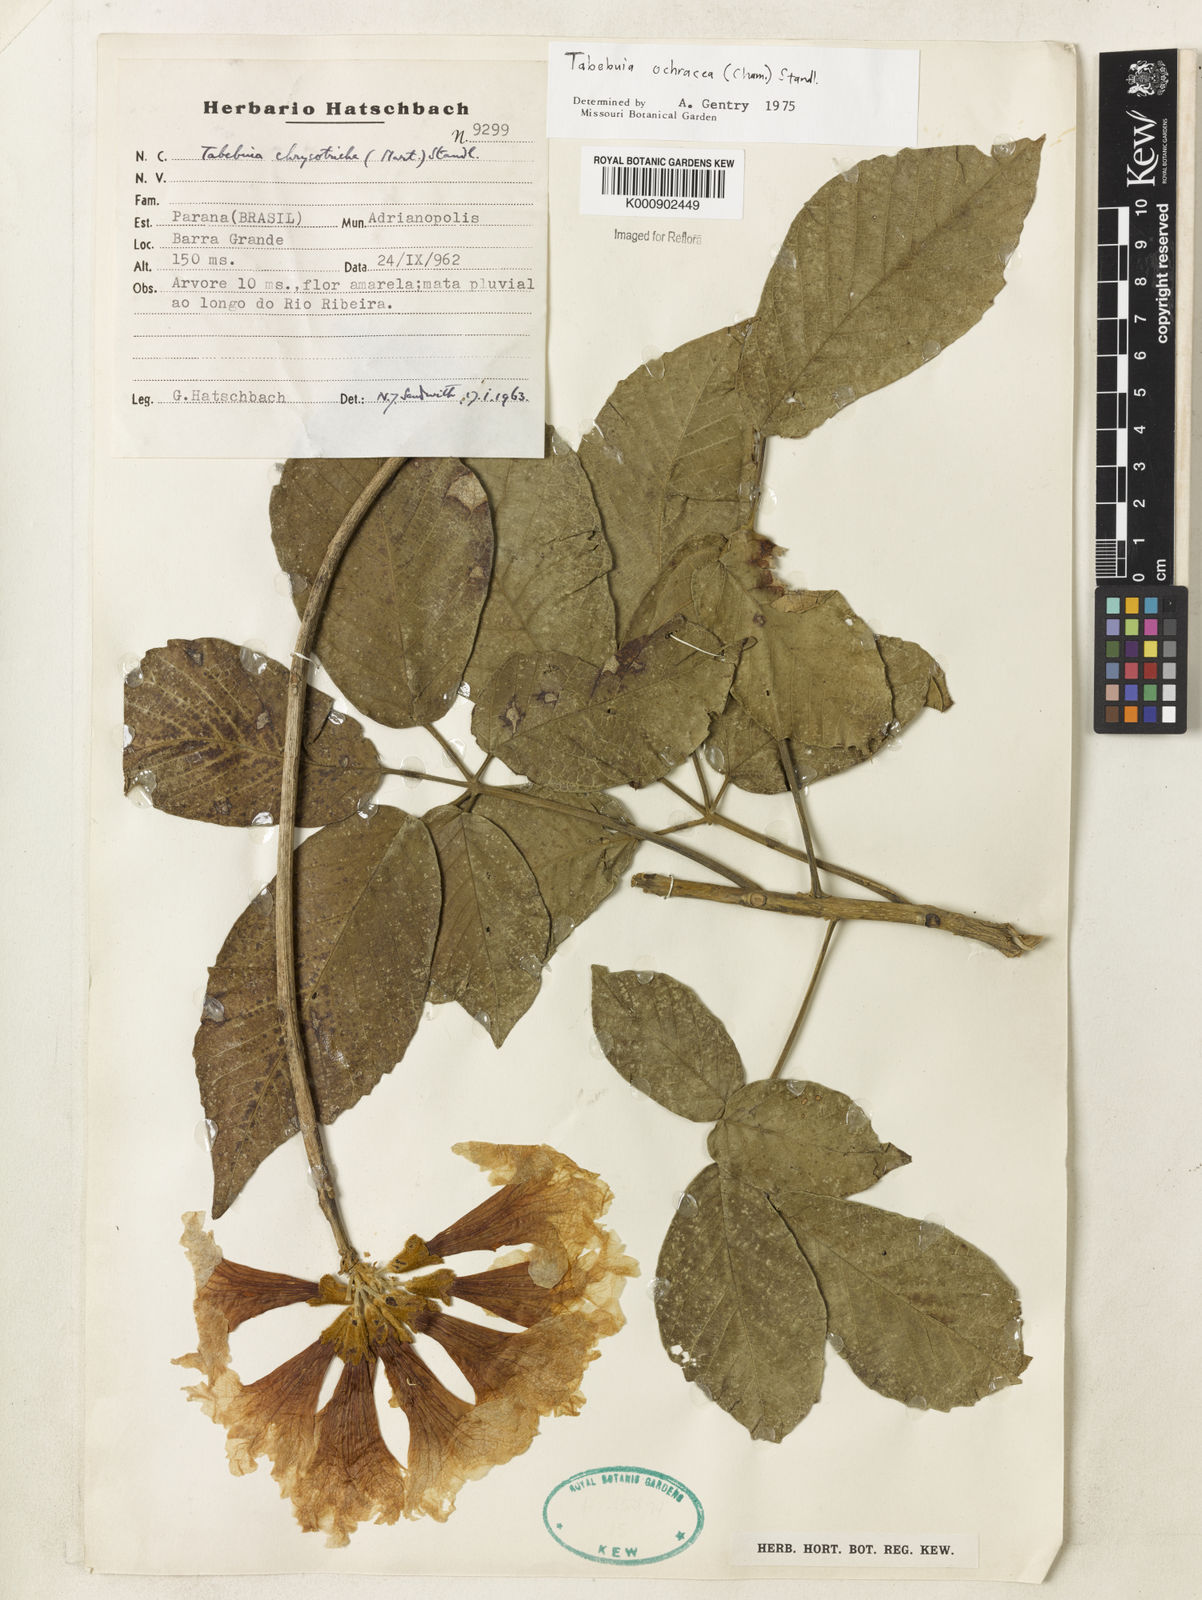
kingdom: Plantae
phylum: Tracheophyta
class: Magnoliopsida
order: Lamiales
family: Bignoniaceae
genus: Handroanthus
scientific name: Handroanthus ochraceus
